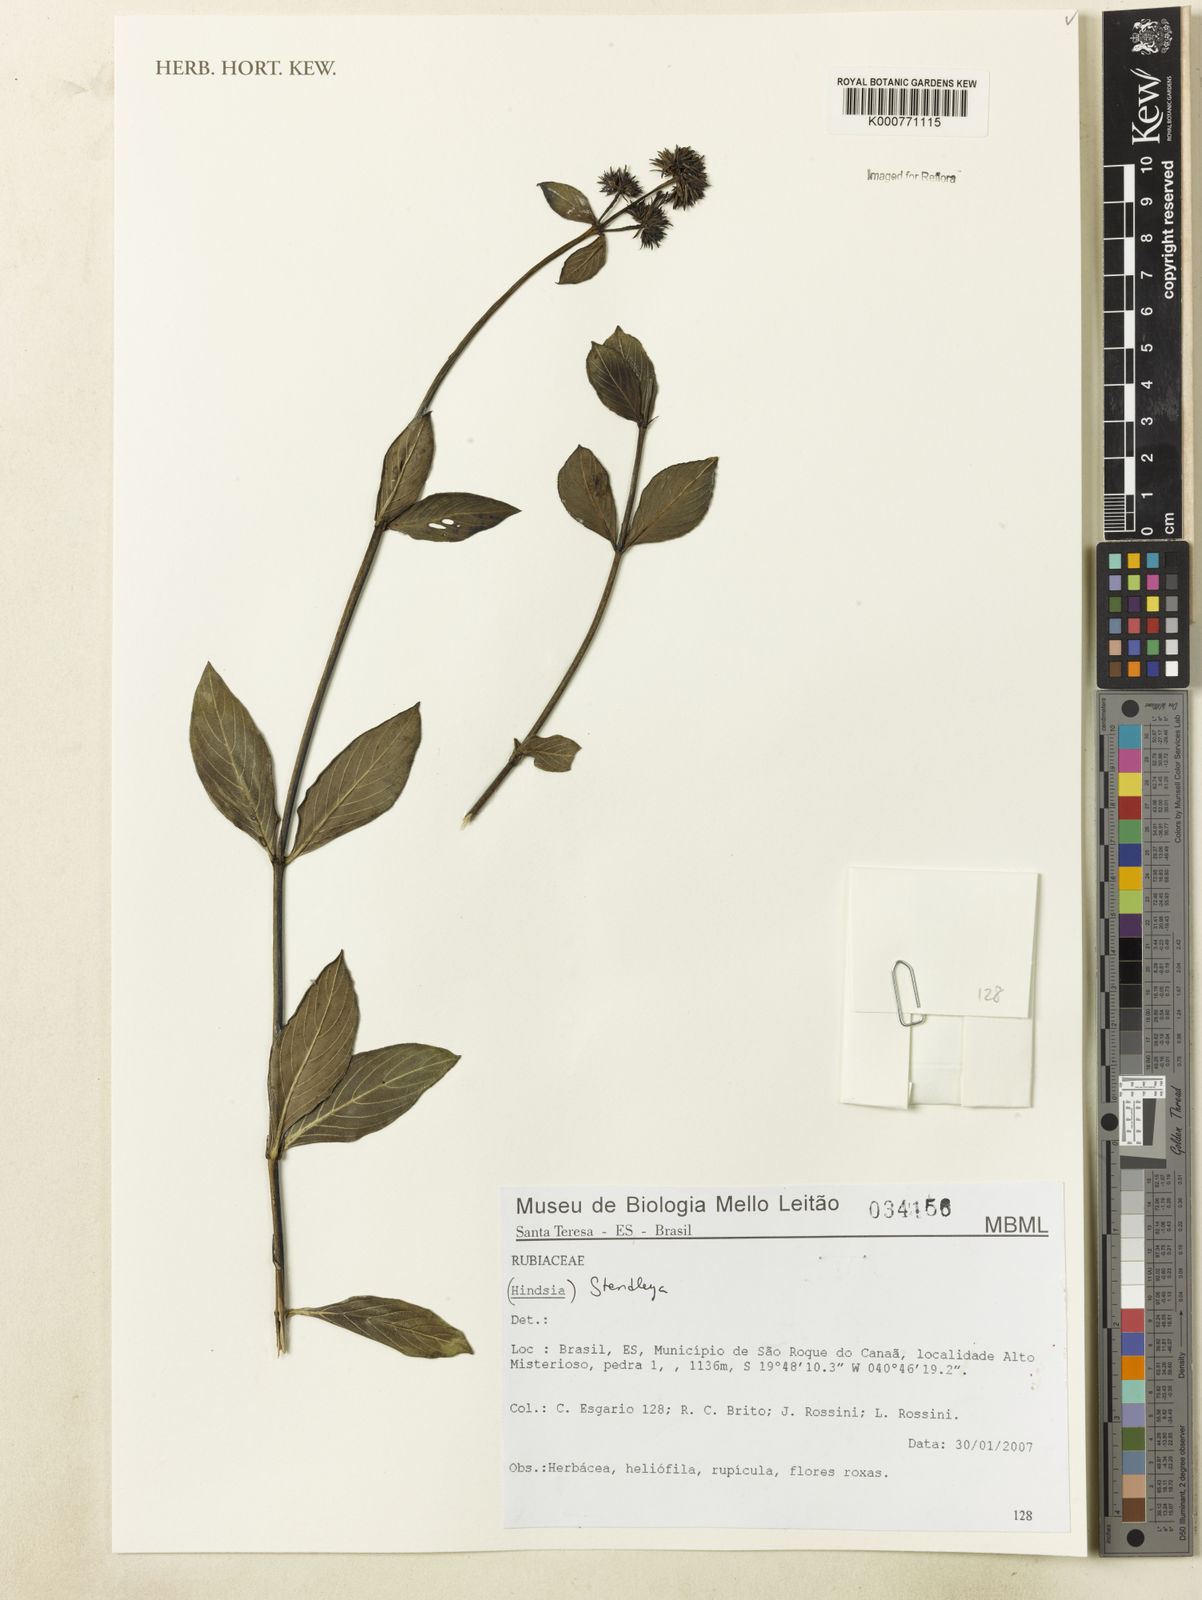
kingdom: Plantae
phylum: Tracheophyta
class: Magnoliopsida
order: Gentianales
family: Rubiaceae
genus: Standleya
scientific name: Standleya
